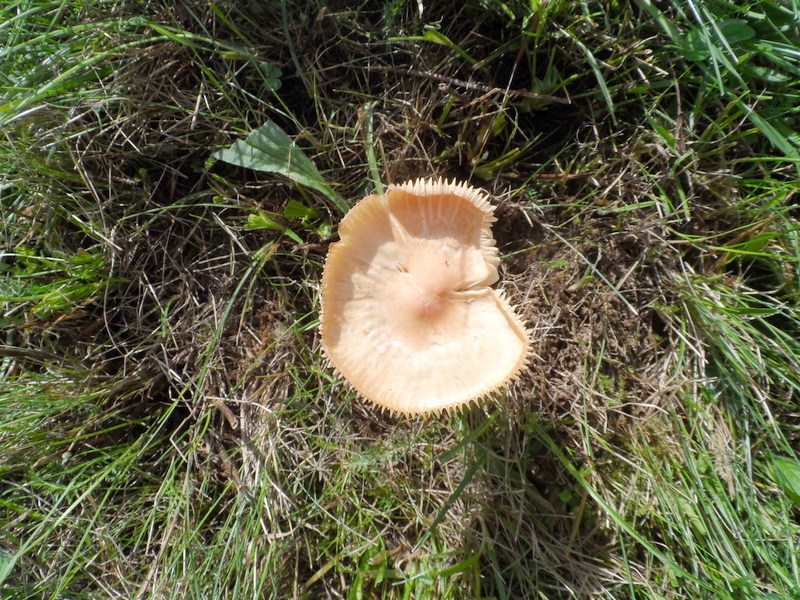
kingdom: Fungi
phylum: Basidiomycota
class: Agaricomycetes
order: Agaricales
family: Hygrophoraceae
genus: Cuphophyllus
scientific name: Cuphophyllus pratensis
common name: Meadow waxcap
